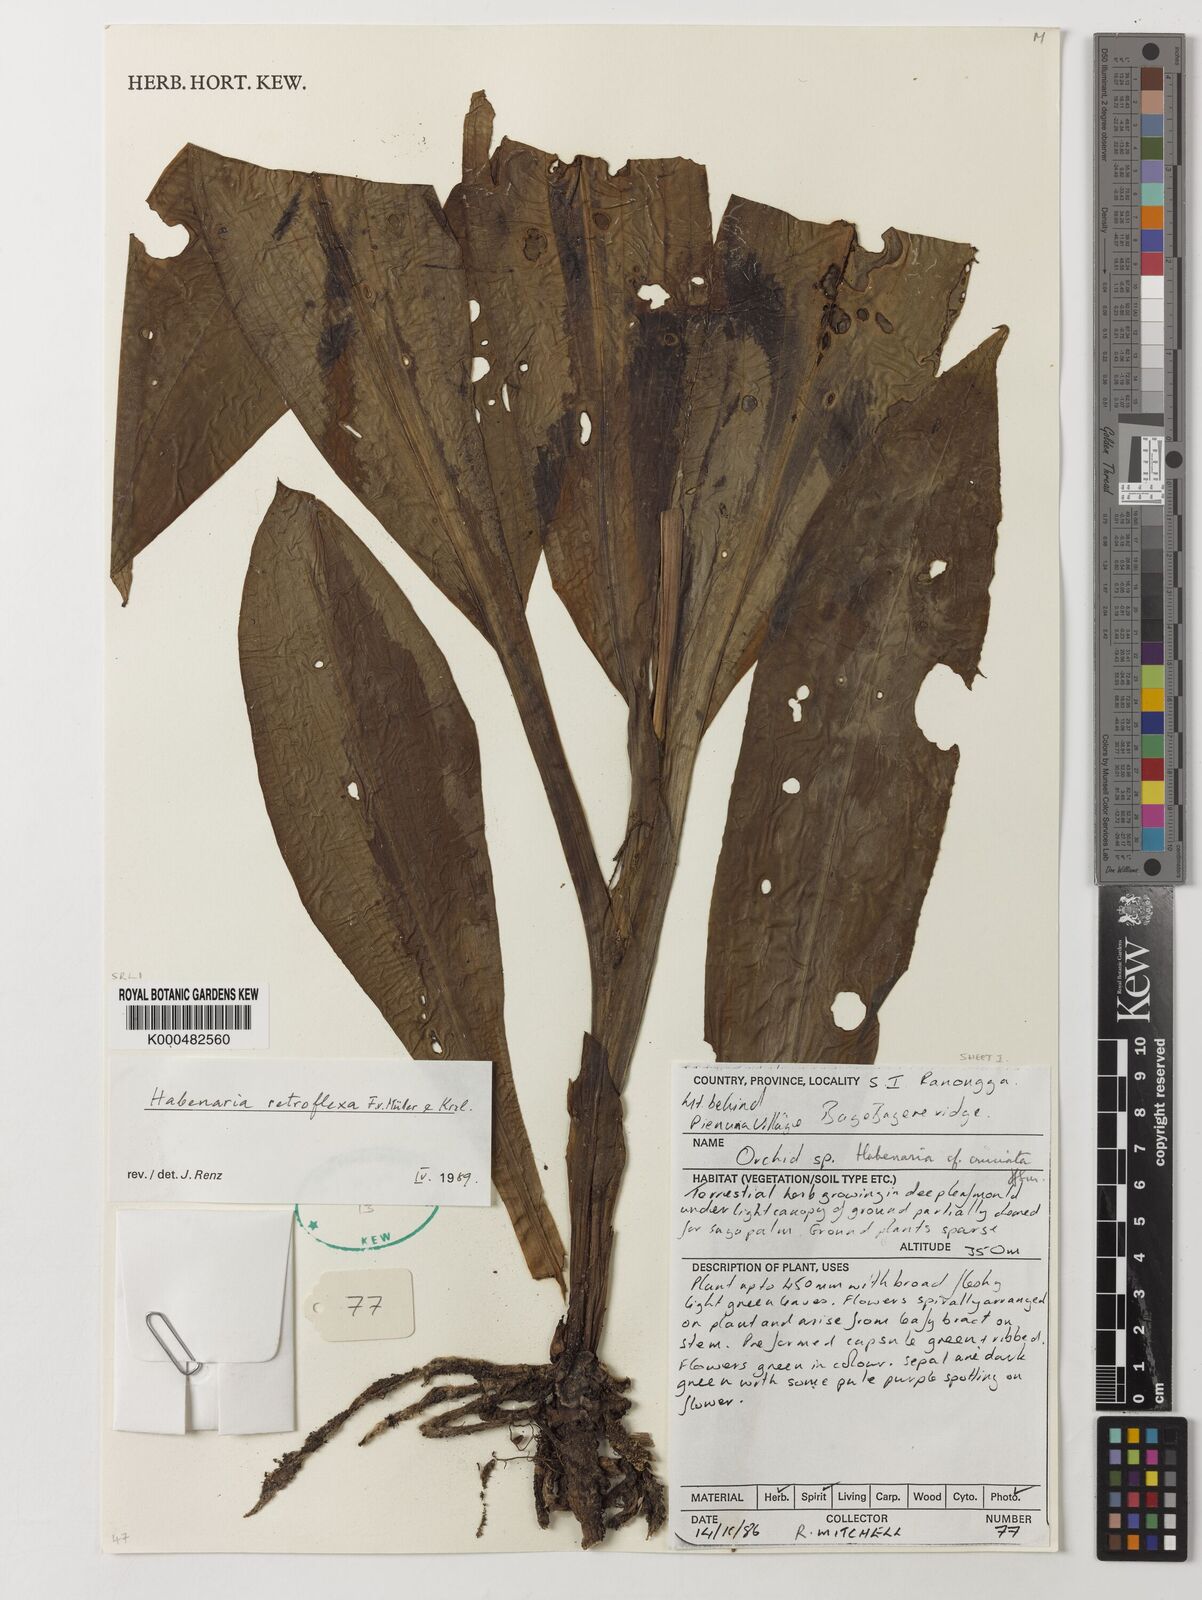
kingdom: Plantae
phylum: Tracheophyta
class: Liliopsida
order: Asparagales
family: Orchidaceae
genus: Habenaria
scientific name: Habenaria retroflexa
